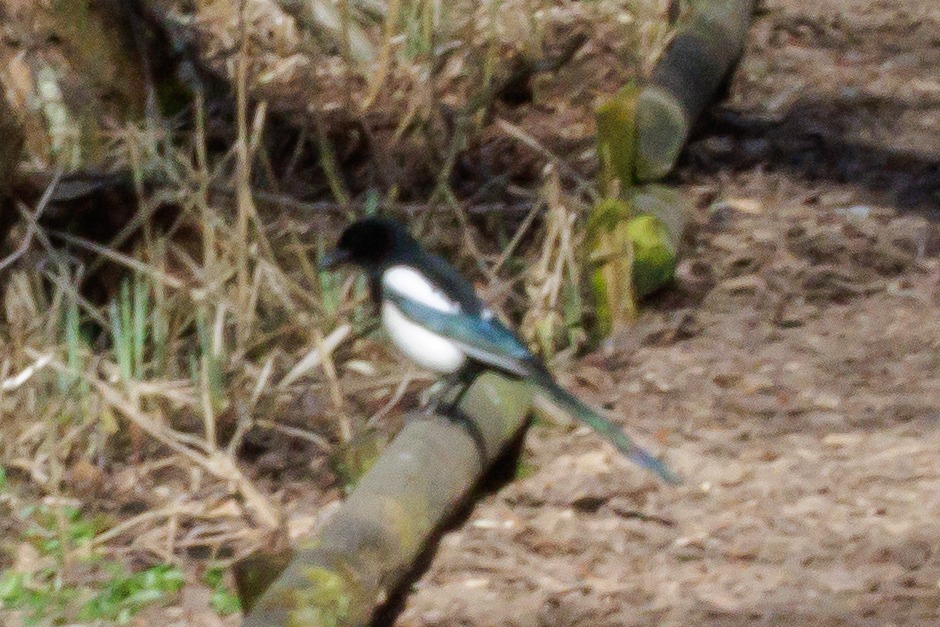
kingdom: Animalia
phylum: Chordata
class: Aves
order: Passeriformes
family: Corvidae
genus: Pica
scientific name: Pica pica
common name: Husskade
